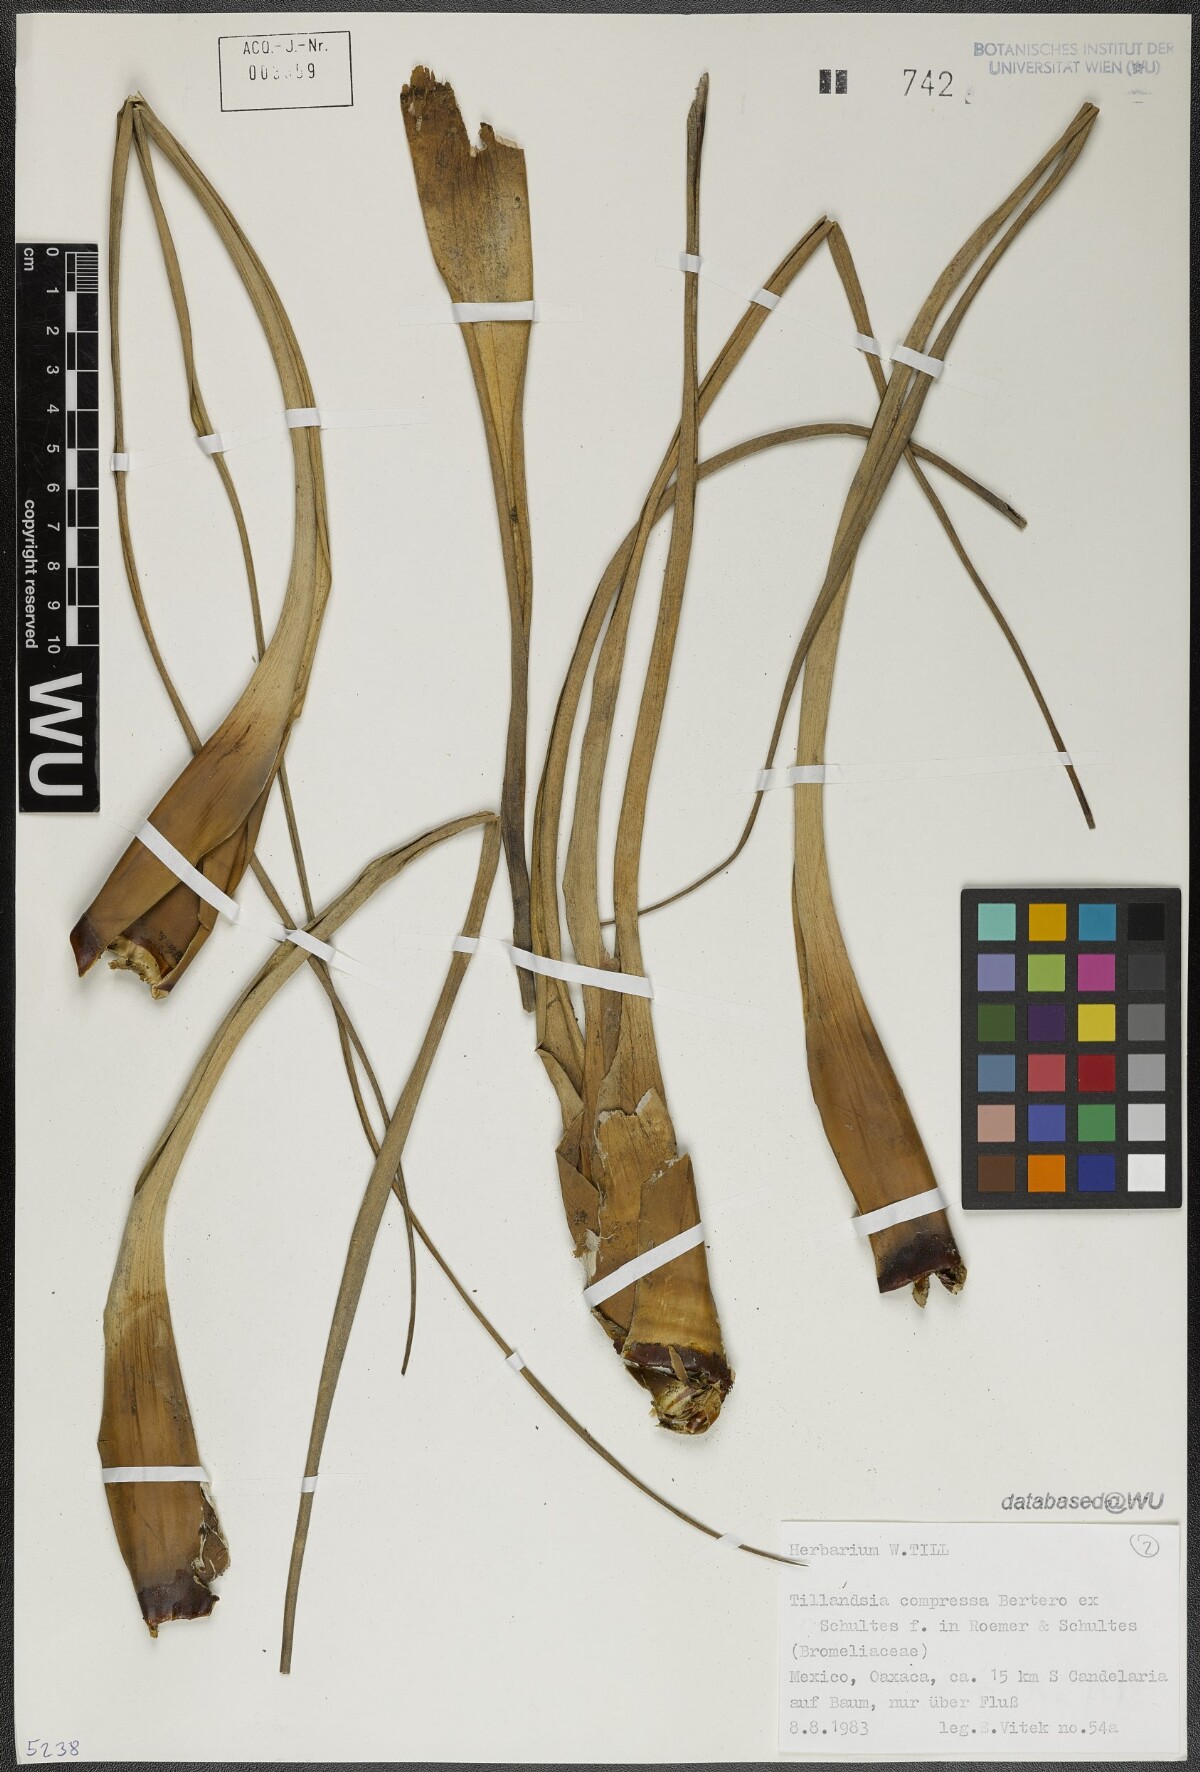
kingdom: Plantae
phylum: Tracheophyta
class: Liliopsida
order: Poales
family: Bromeliaceae
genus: Tillandsia
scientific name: Tillandsia compressa
